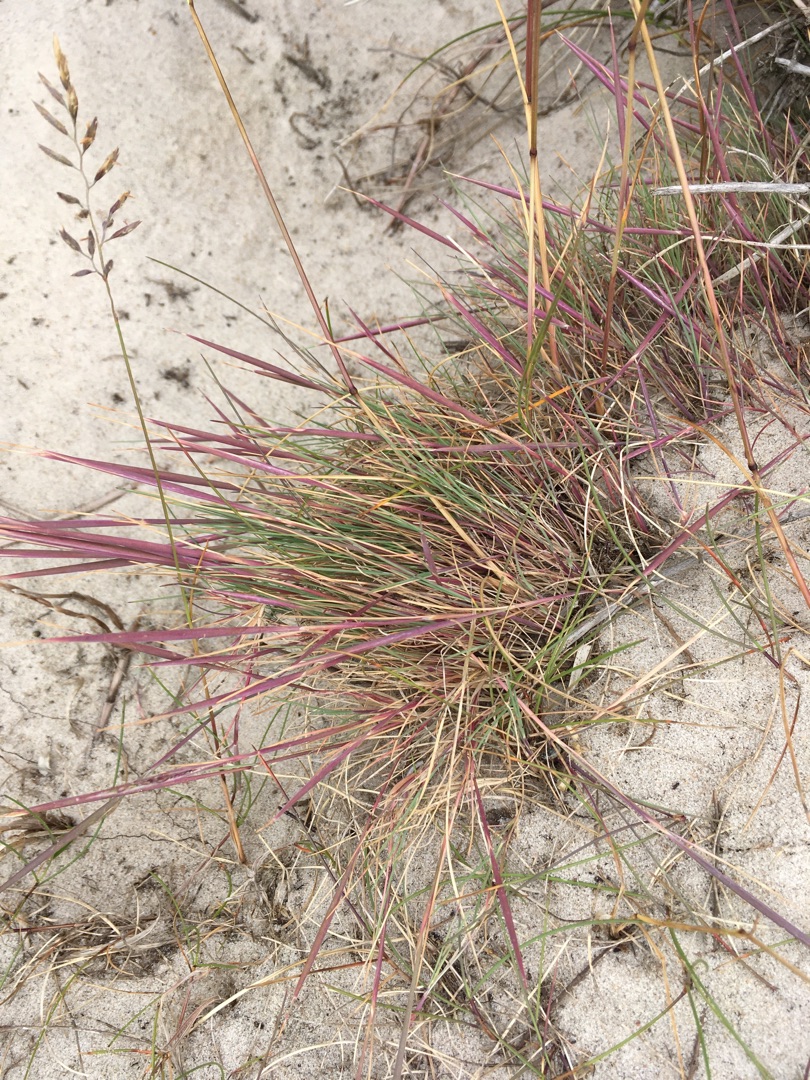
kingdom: Plantae
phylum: Tracheophyta
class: Liliopsida
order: Poales
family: Poaceae
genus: Corynephorus
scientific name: Corynephorus canescens
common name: Sandskæg
